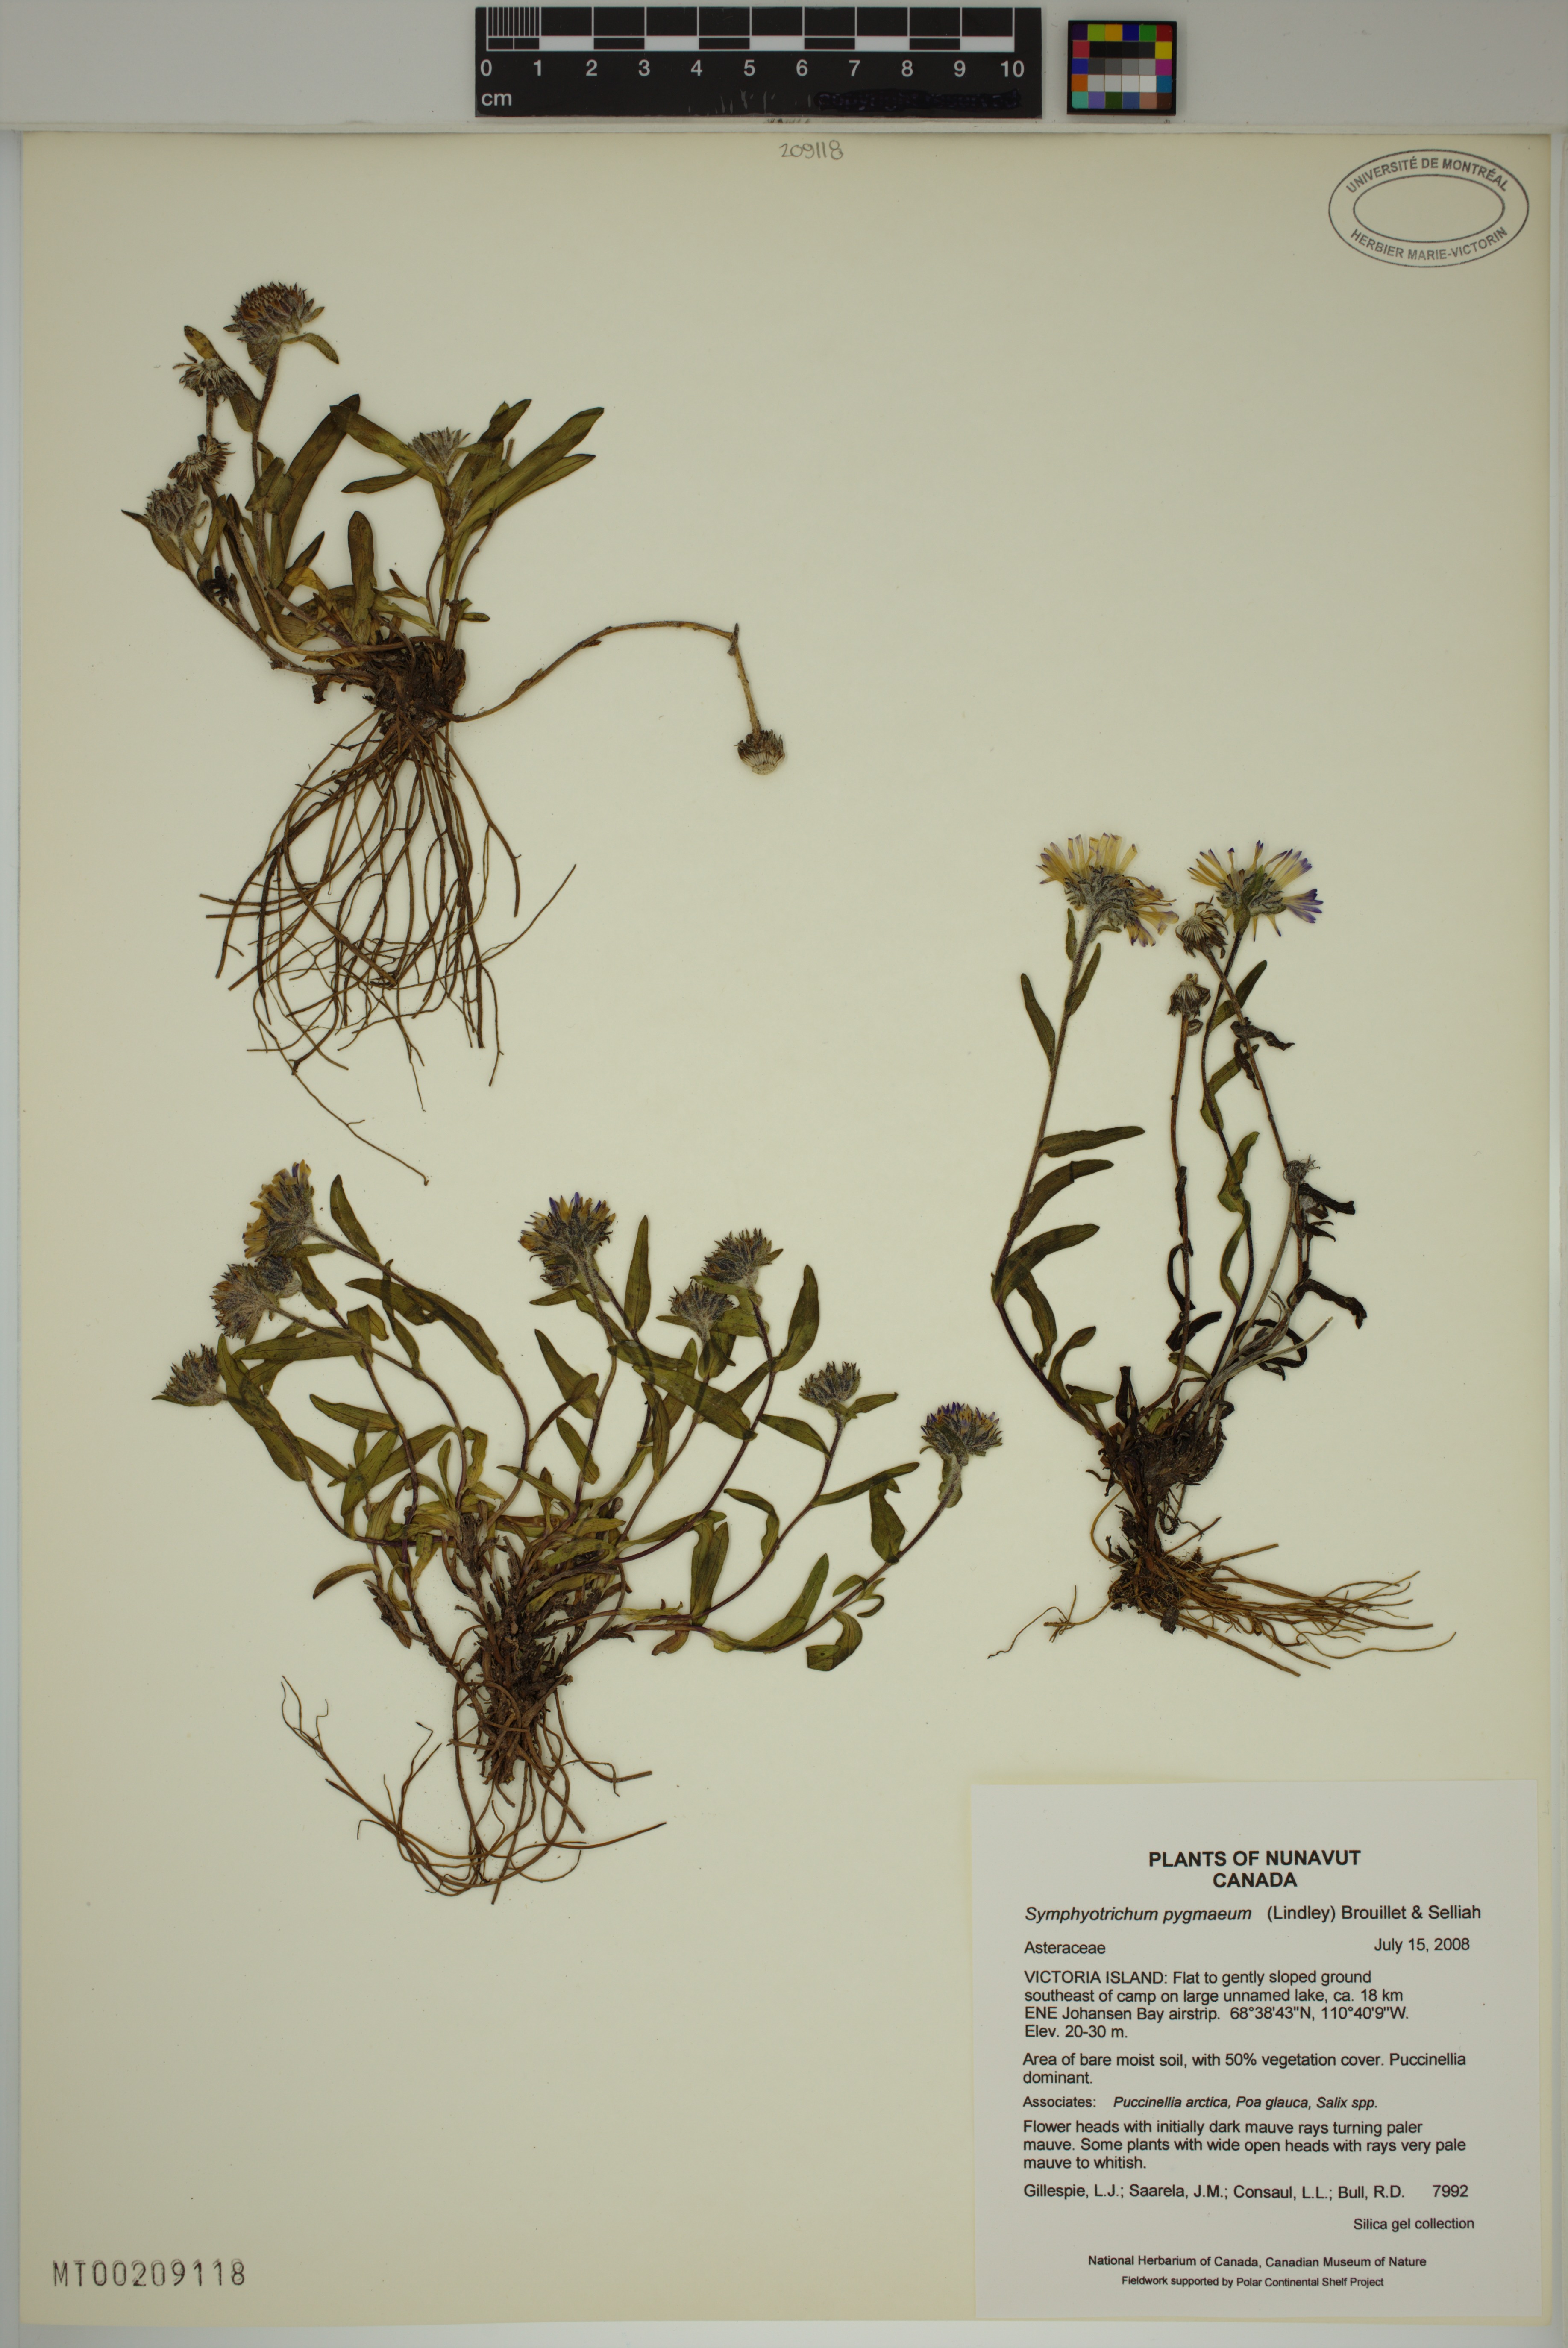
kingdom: Plantae
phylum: Tracheophyta
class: Magnoliopsida
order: Asterales
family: Asteraceae
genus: Symphyotrichum
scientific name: Symphyotrichum pygmaeum
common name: Pygmy aster
